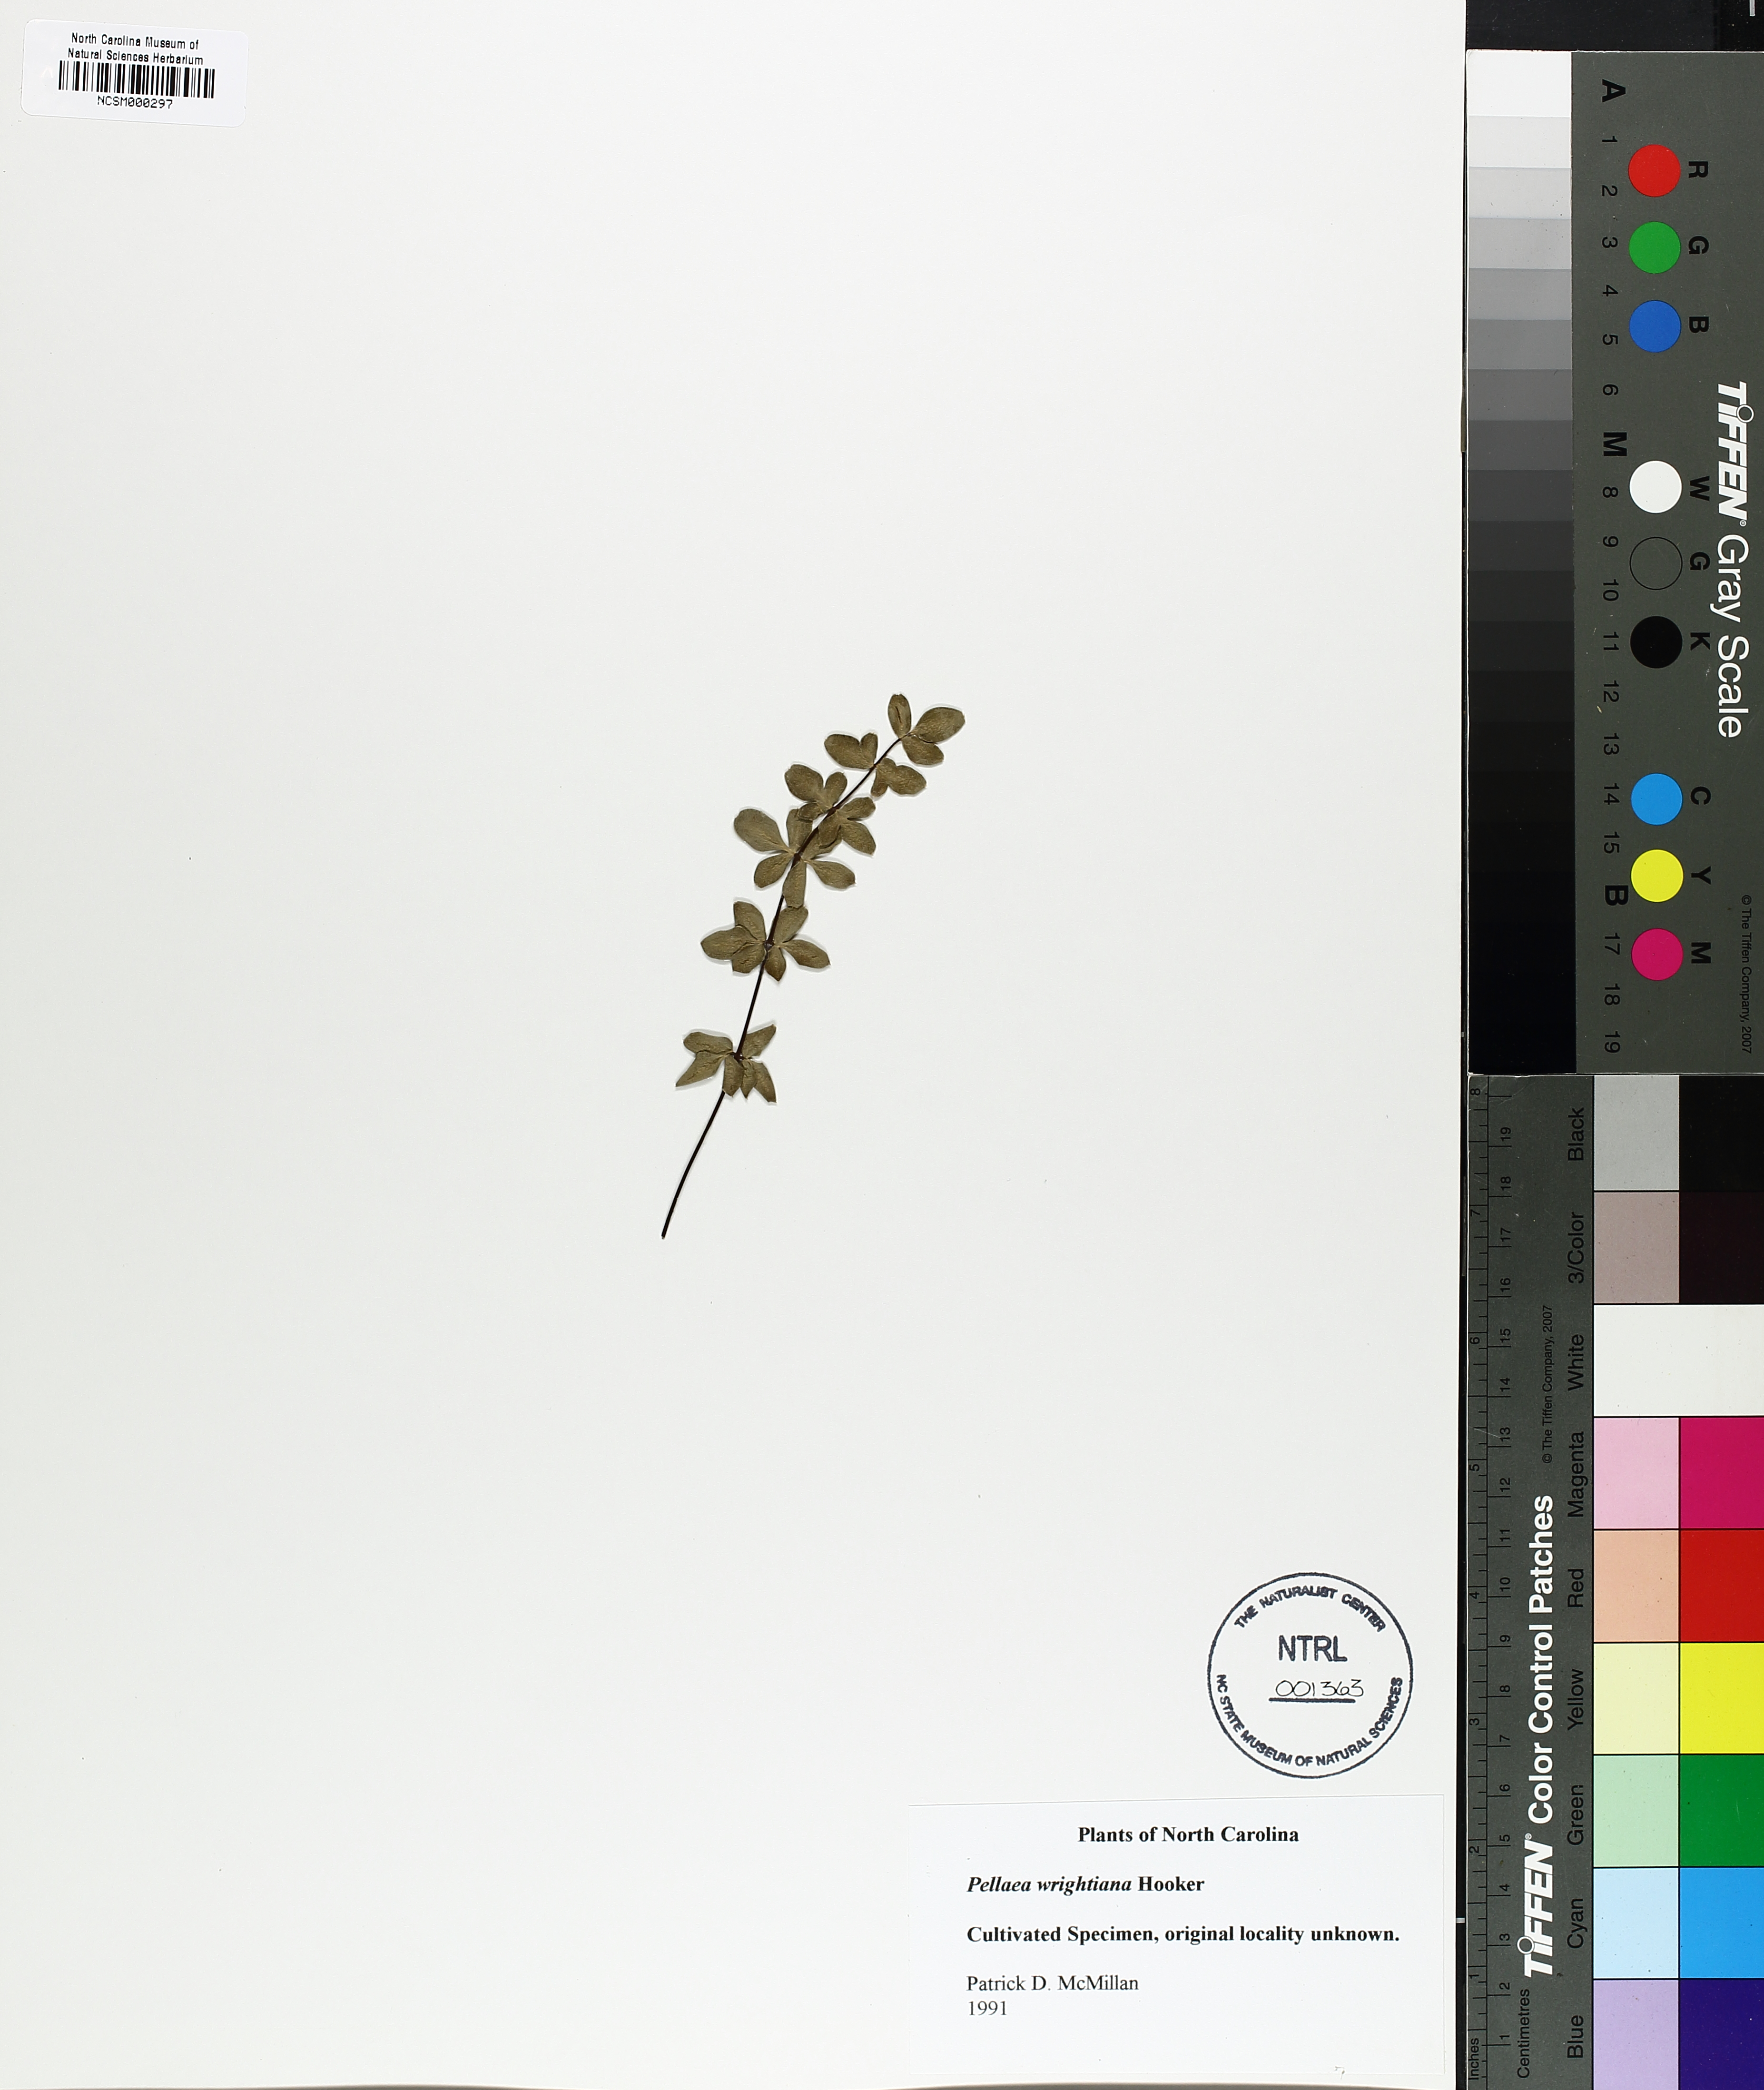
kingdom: Plantae
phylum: Tracheophyta
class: Polypodiopsida
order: Polypodiales
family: Pteridaceae
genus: Pellaea
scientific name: Pellaea wrightiana
